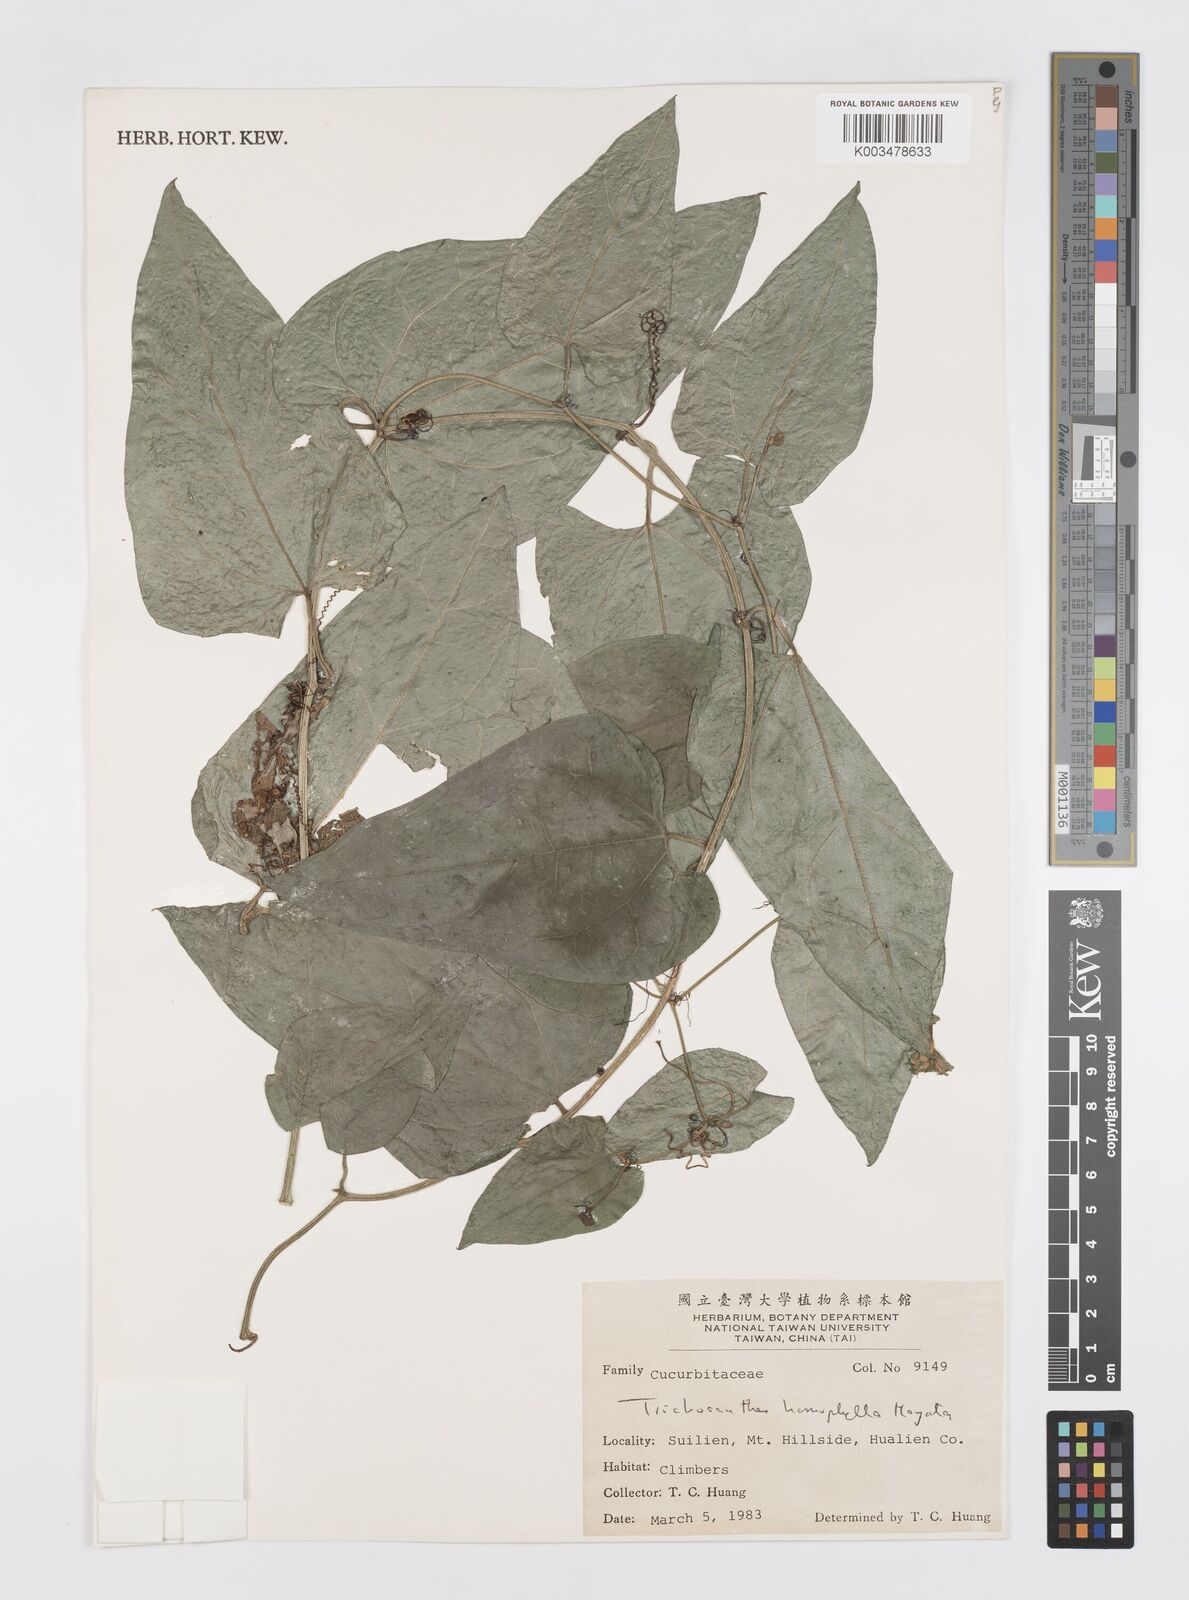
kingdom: Plantae
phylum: Tracheophyta
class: Magnoliopsida
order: Cucurbitales
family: Cucurbitaceae
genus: Trichosanthes
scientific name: Trichosanthes homophylla
